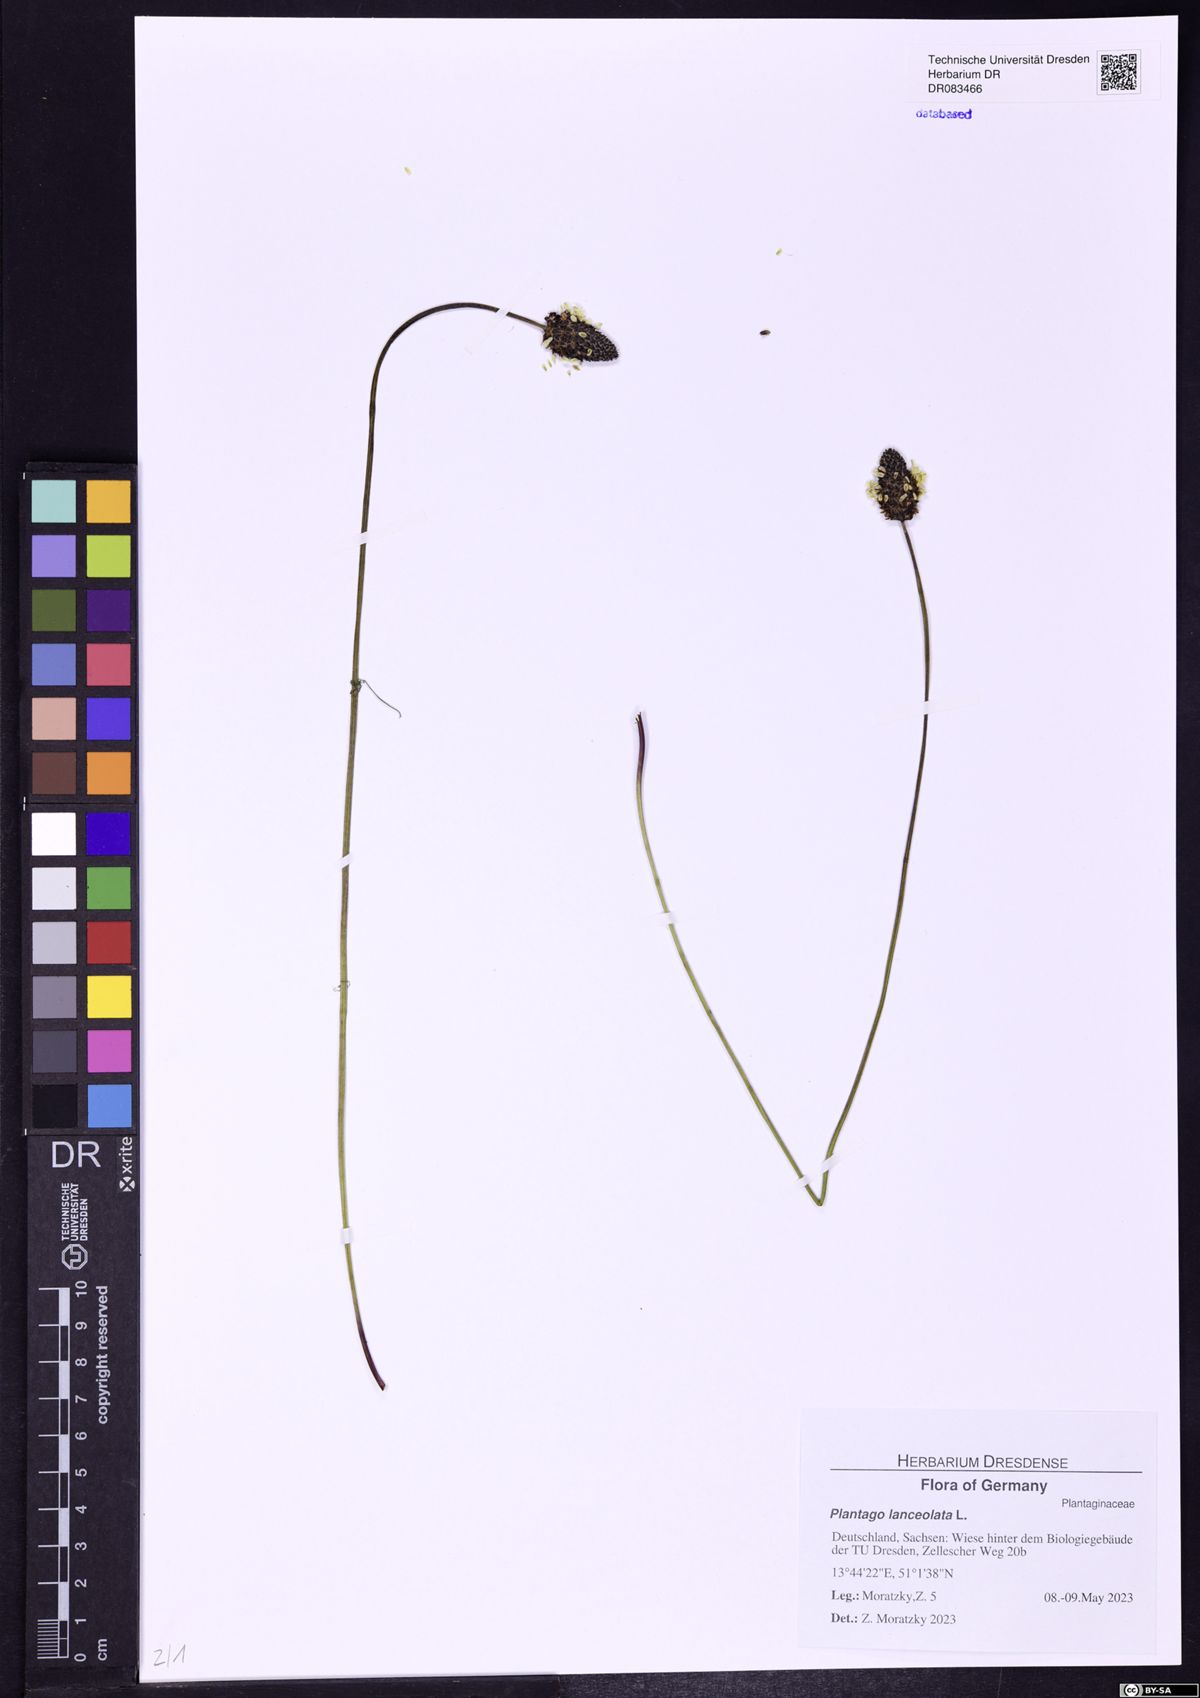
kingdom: Plantae
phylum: Tracheophyta
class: Magnoliopsida
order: Lamiales
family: Plantaginaceae
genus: Plantago
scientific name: Plantago lanceolata
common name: Ribwort plantain
